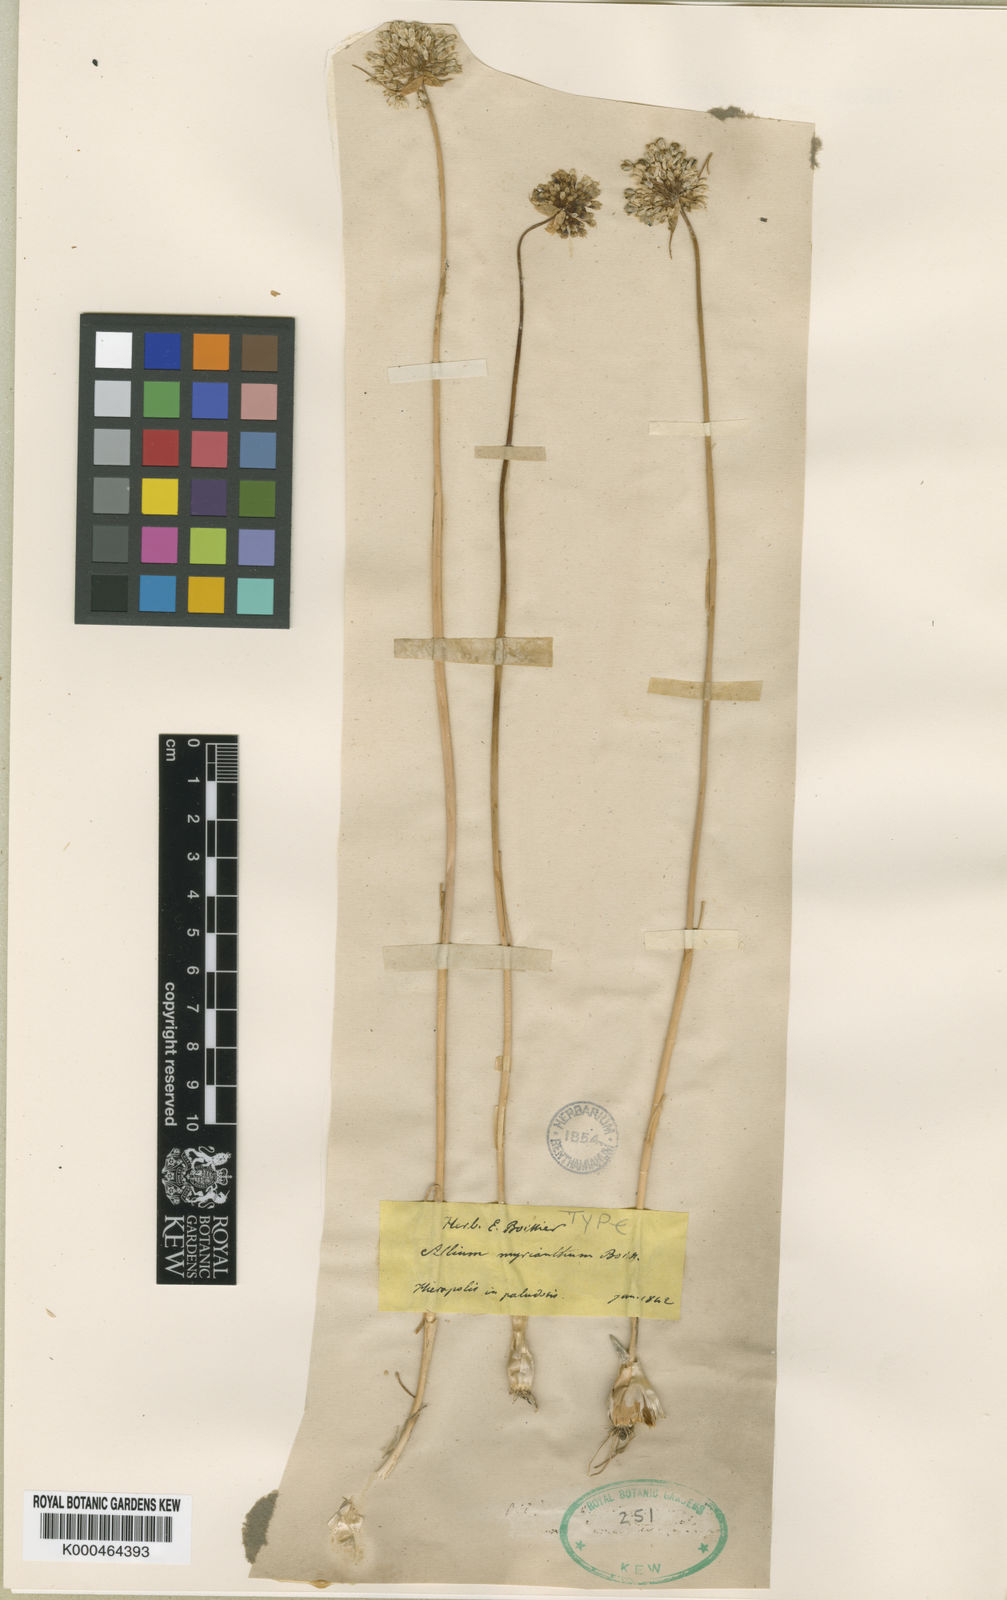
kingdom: Plantae
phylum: Tracheophyta
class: Liliopsida
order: Asparagales
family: Amaryllidaceae
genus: Allium
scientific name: Allium myrianthum
